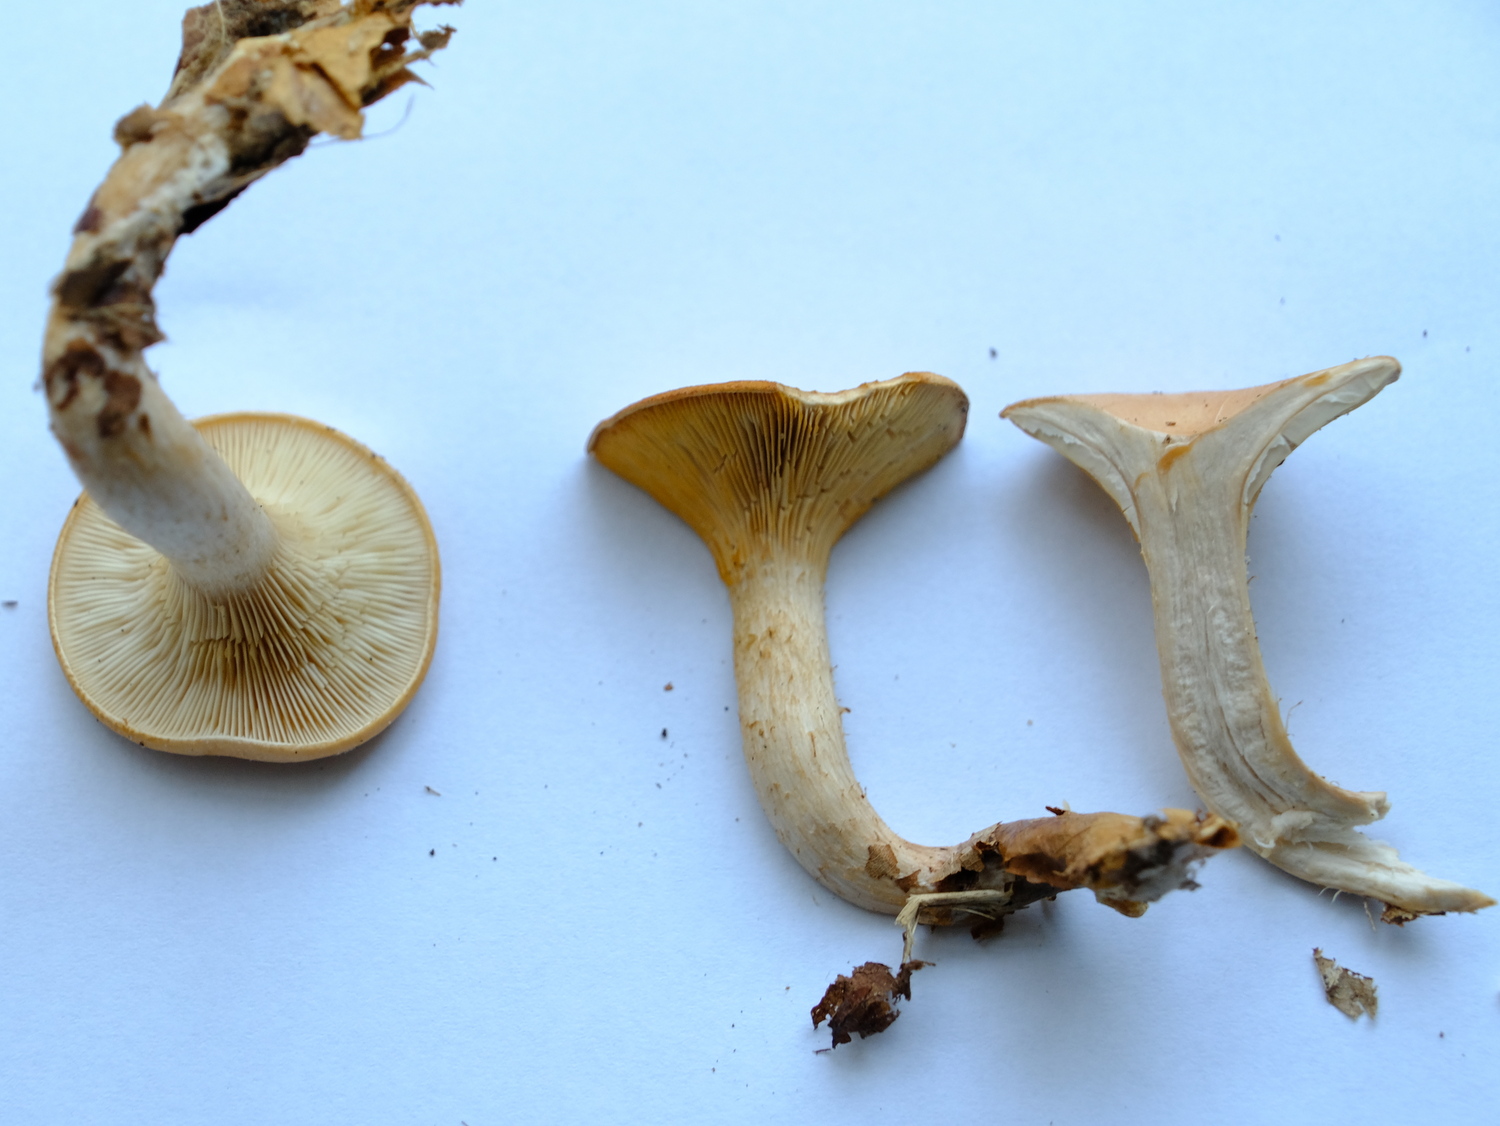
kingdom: Fungi
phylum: Basidiomycota
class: Agaricomycetes
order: Agaricales
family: Tricholomataceae
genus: Paralepista
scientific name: Paralepista gilva
